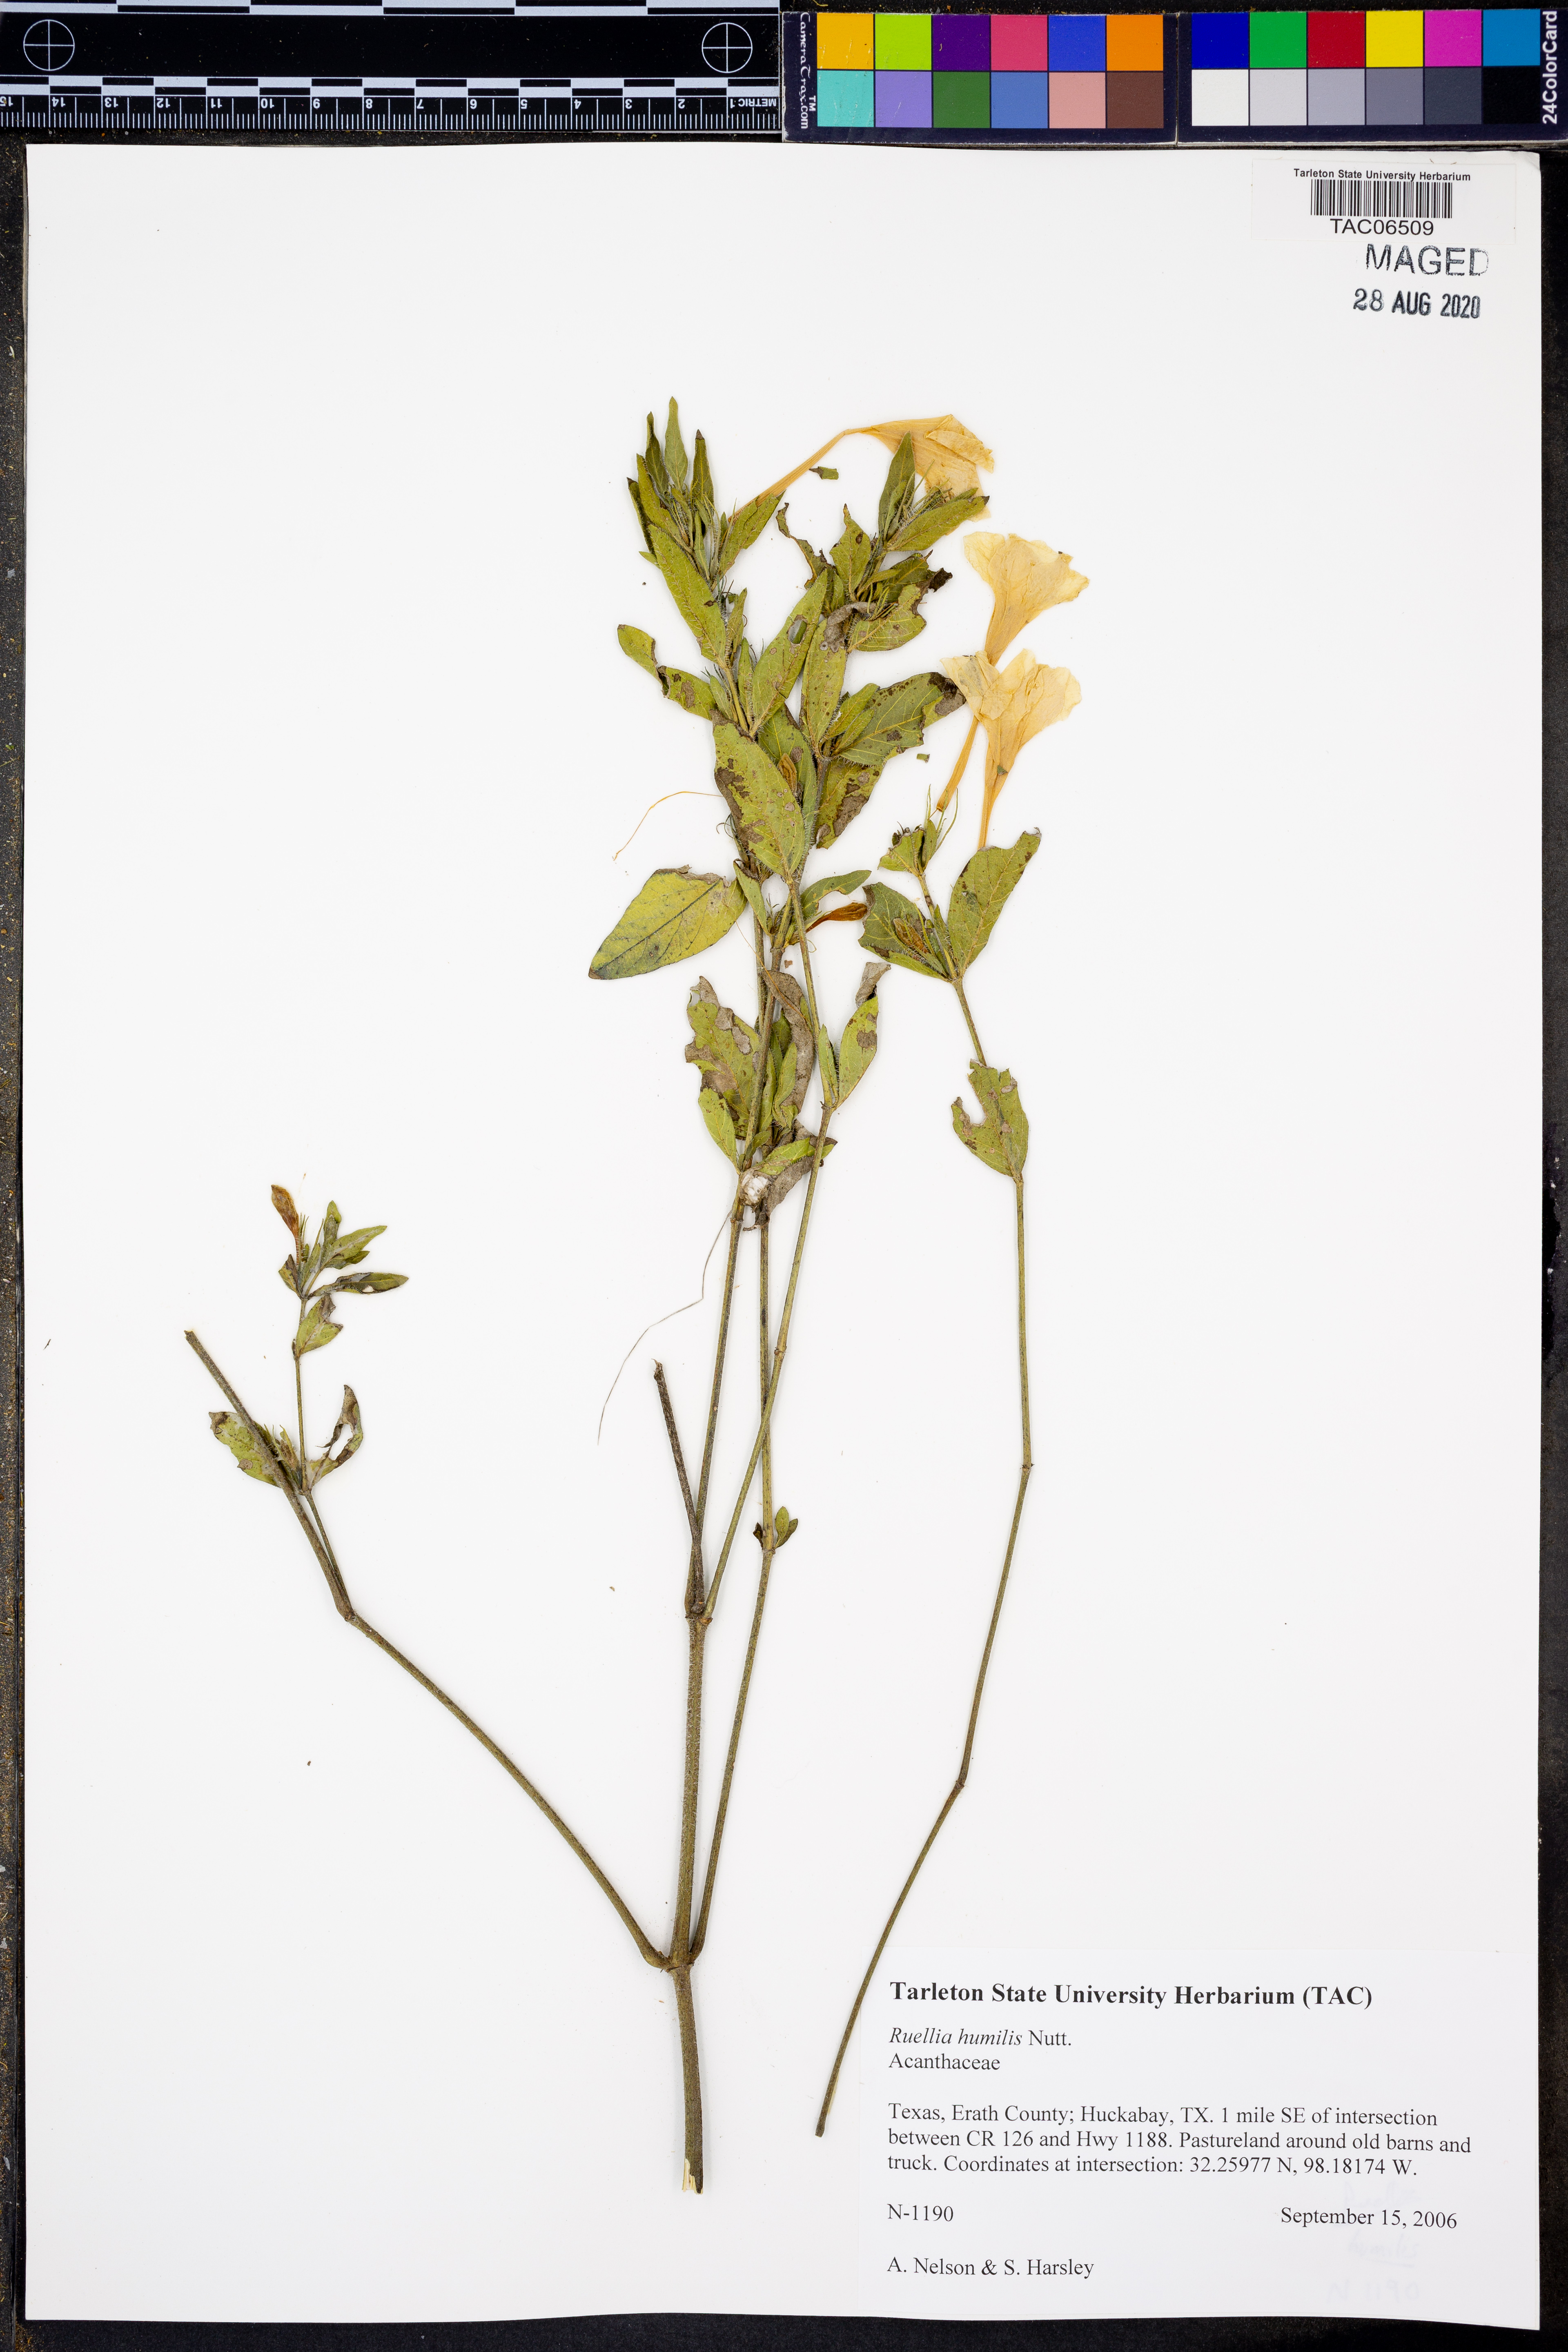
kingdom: Plantae
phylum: Tracheophyta
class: Magnoliopsida
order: Lamiales
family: Acanthaceae
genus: Ruellia
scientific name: Ruellia humilis
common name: Fringe-leaf ruellia
